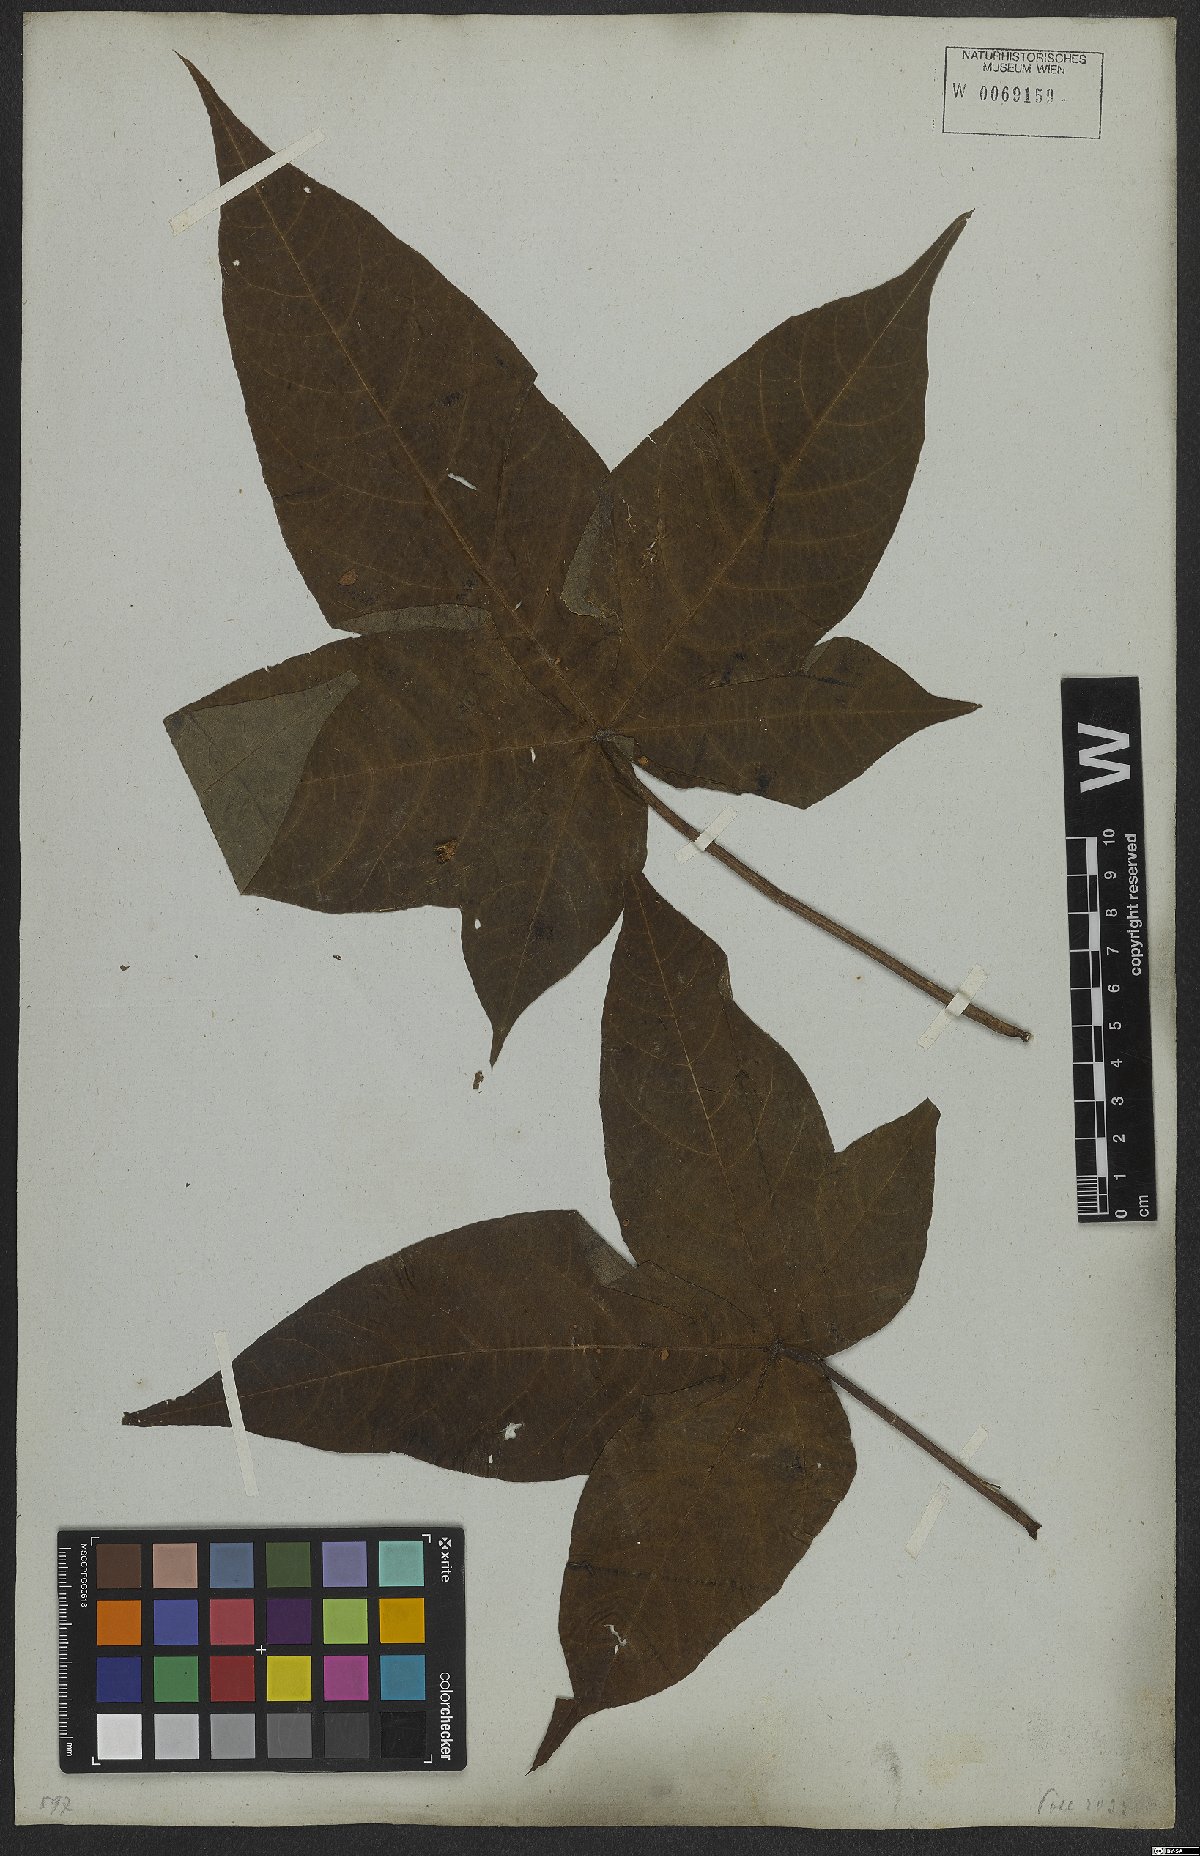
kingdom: Plantae
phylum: Tracheophyta
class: Magnoliopsida
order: Malvales
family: Malvaceae
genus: Gossypium
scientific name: Gossypium hirsutum
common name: Cotton
